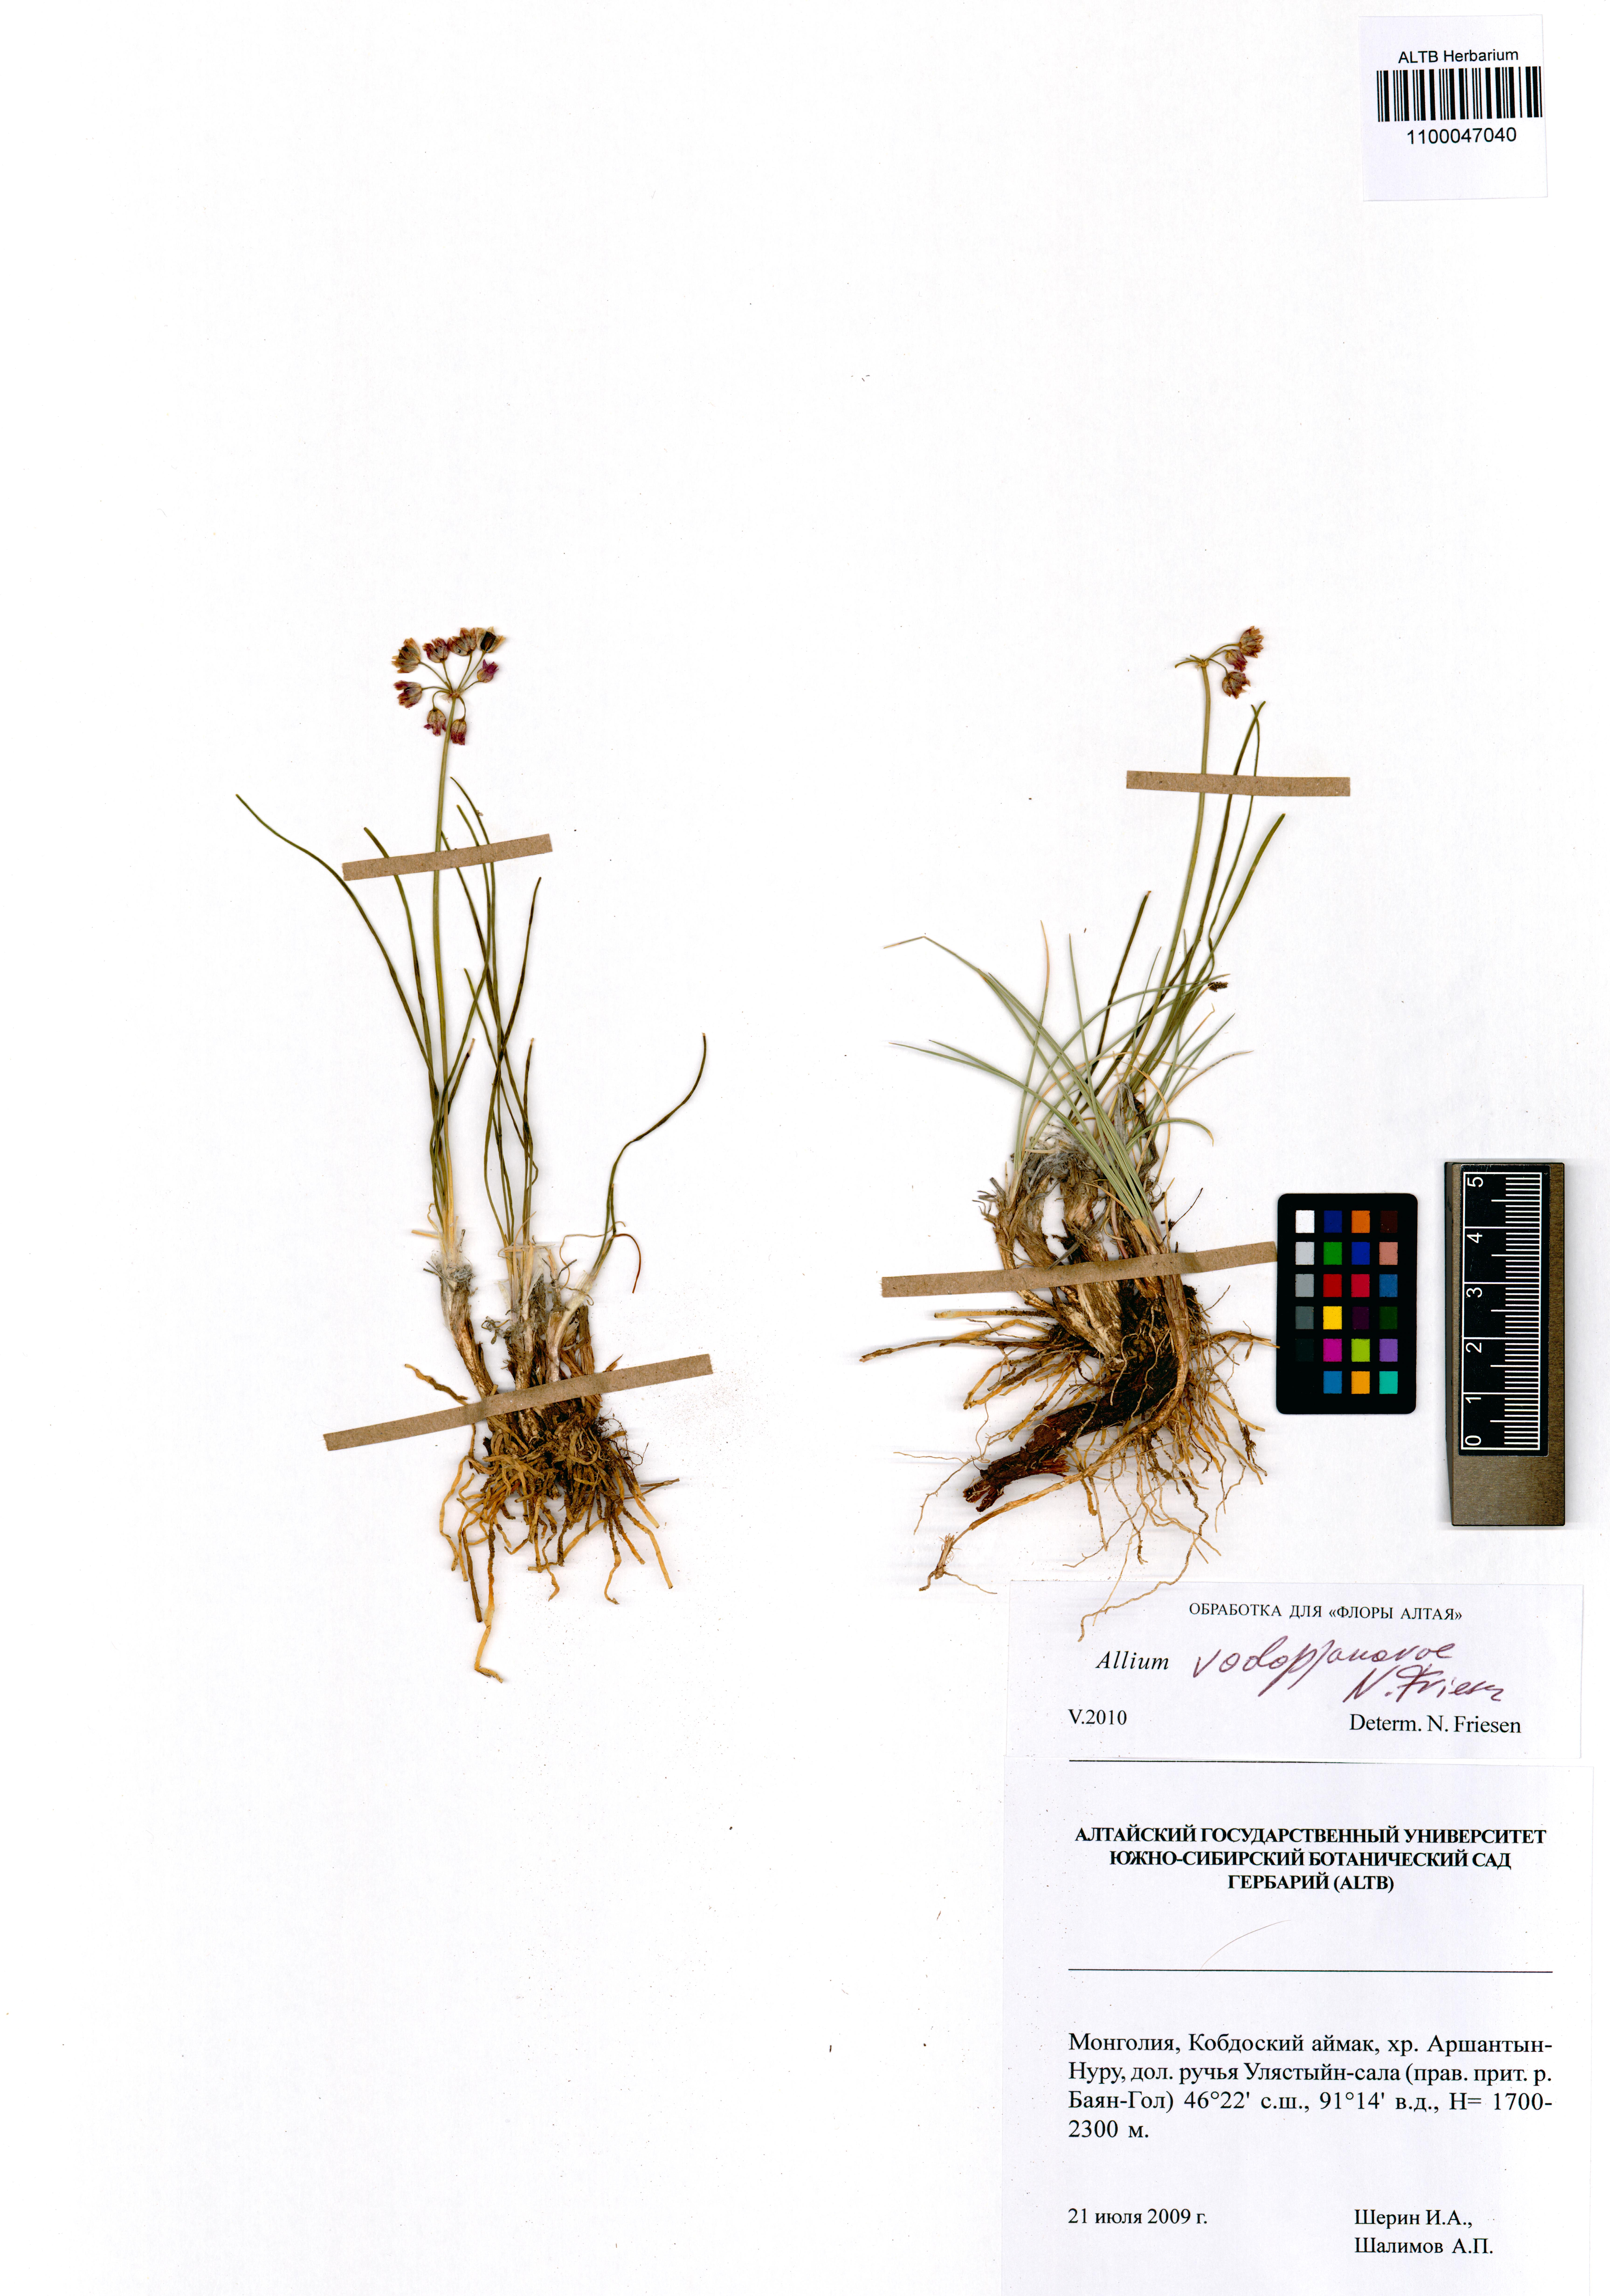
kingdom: Plantae
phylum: Tracheophyta
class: Liliopsida
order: Asparagales
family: Amaryllidaceae
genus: Allium
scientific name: Allium vodopjanovae
